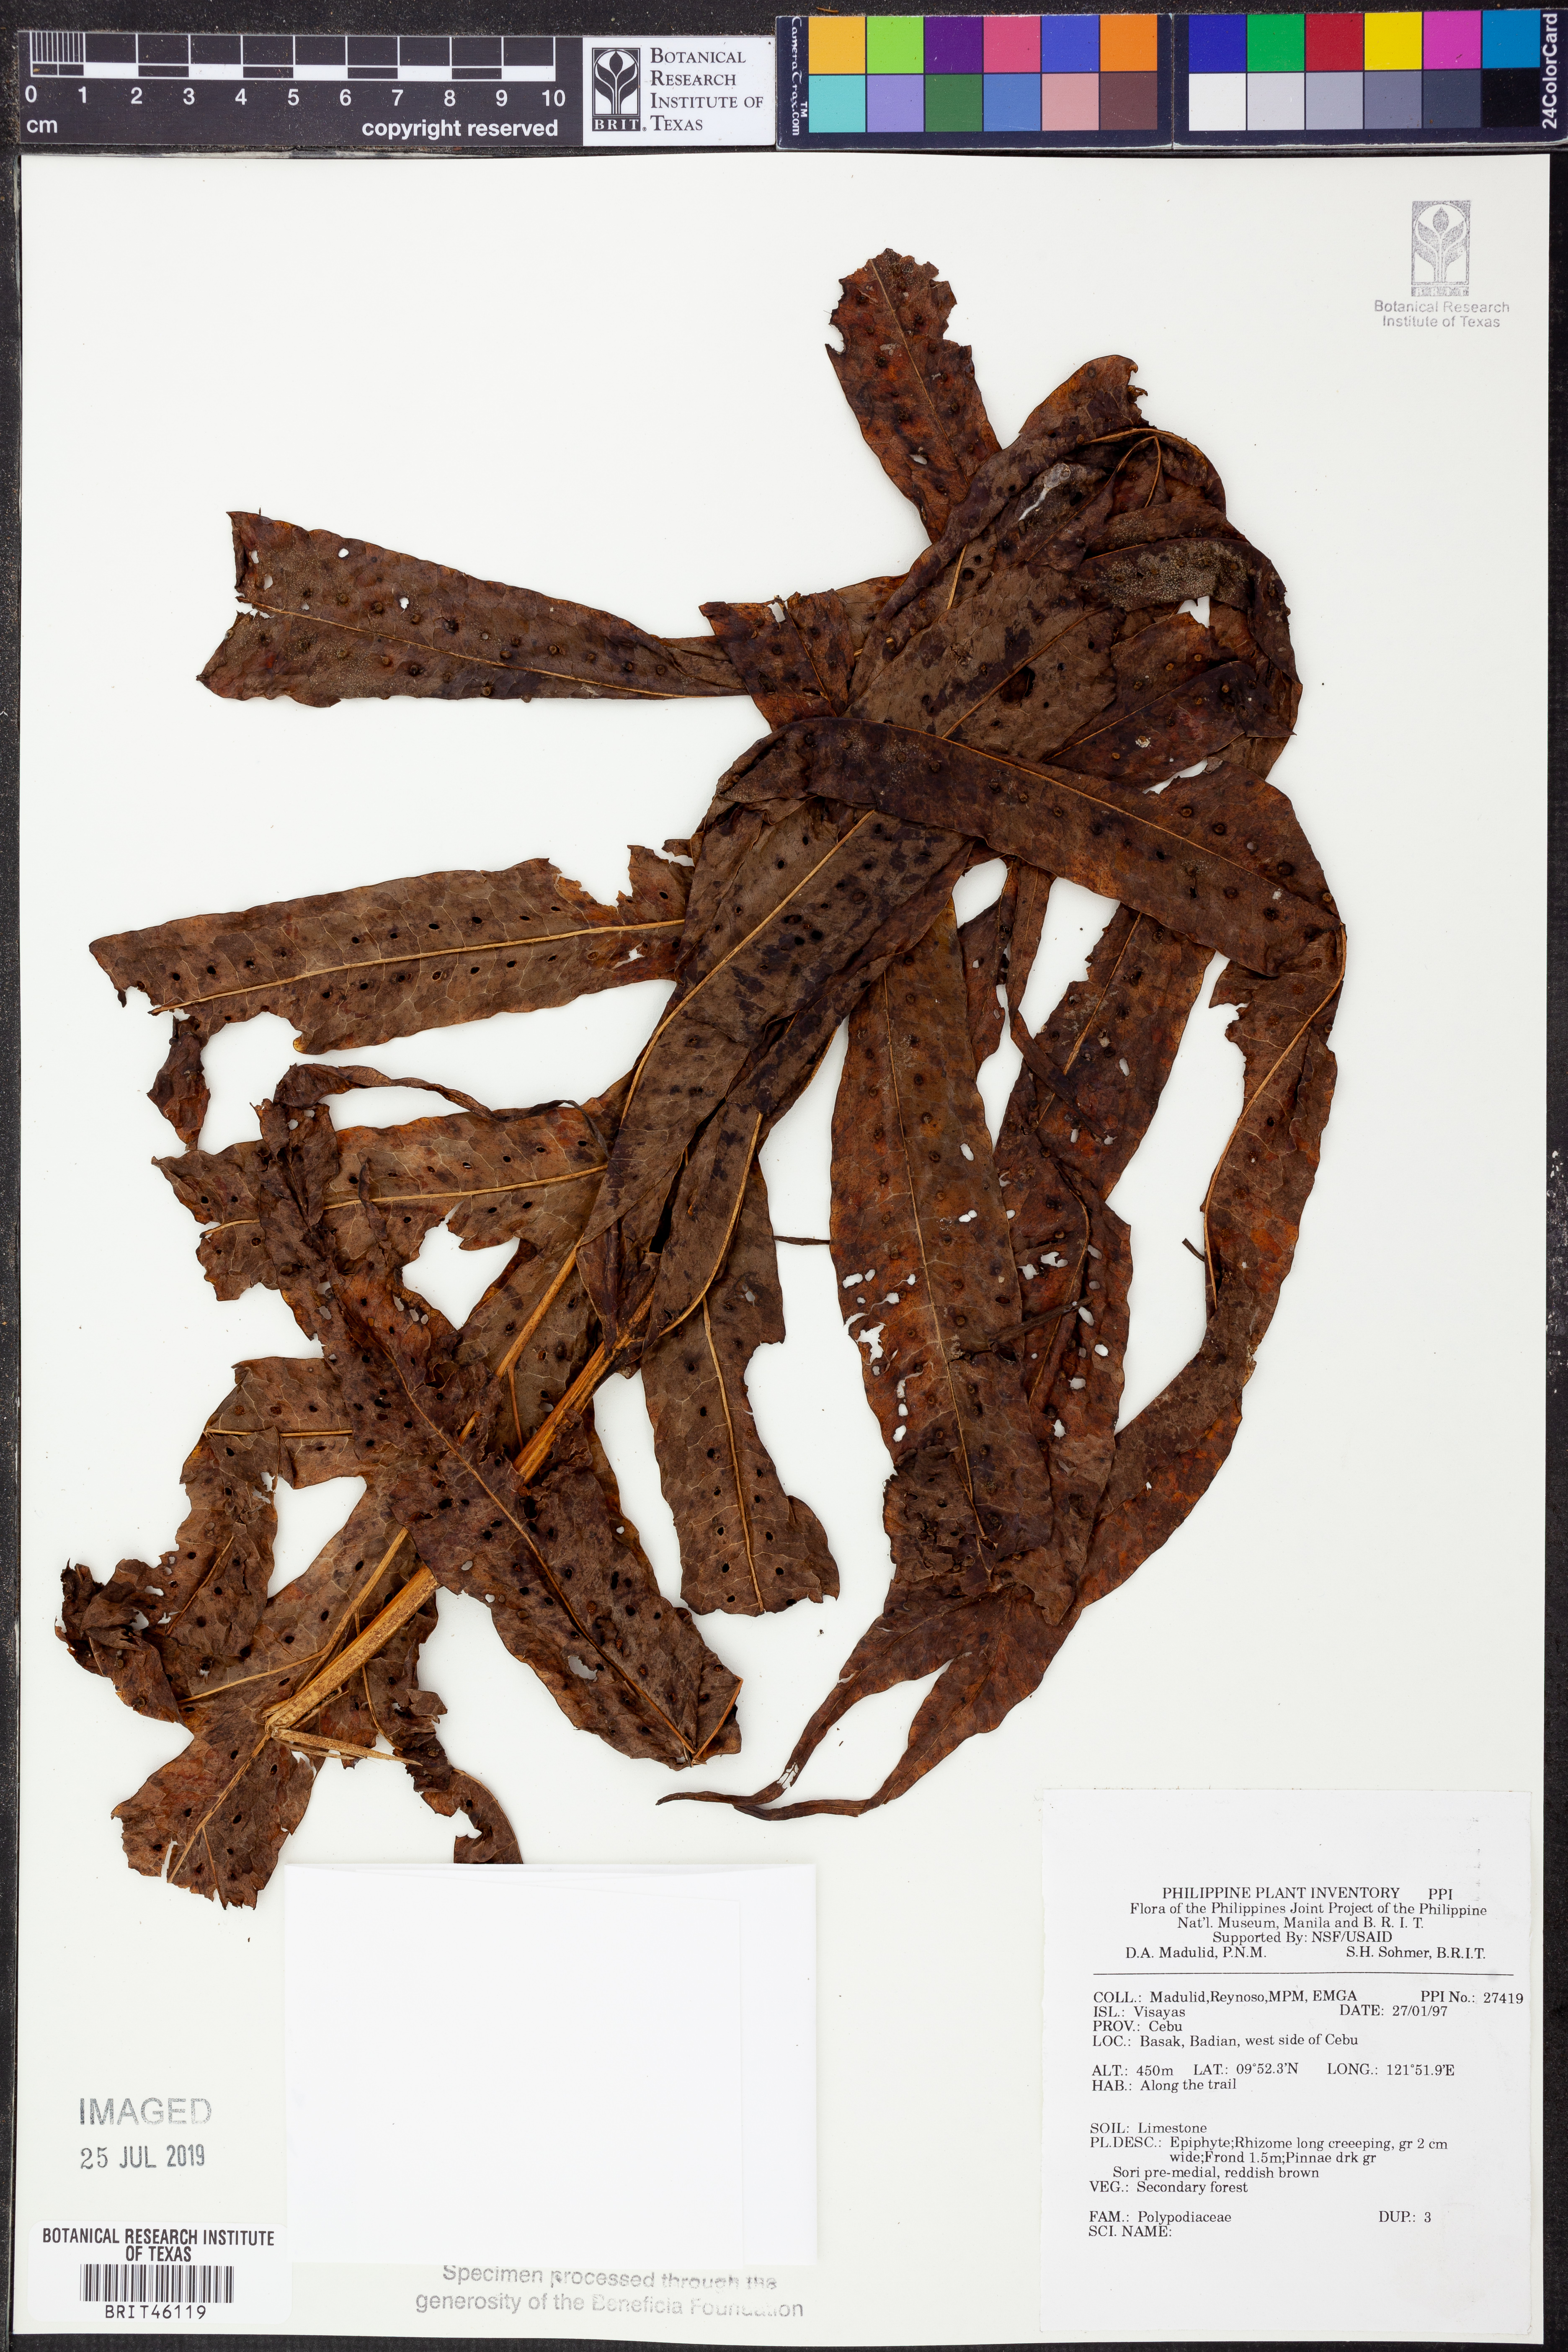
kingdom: Plantae
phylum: Tracheophyta
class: Polypodiopsida
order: Polypodiales
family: Polypodiaceae
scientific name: Polypodiaceae
